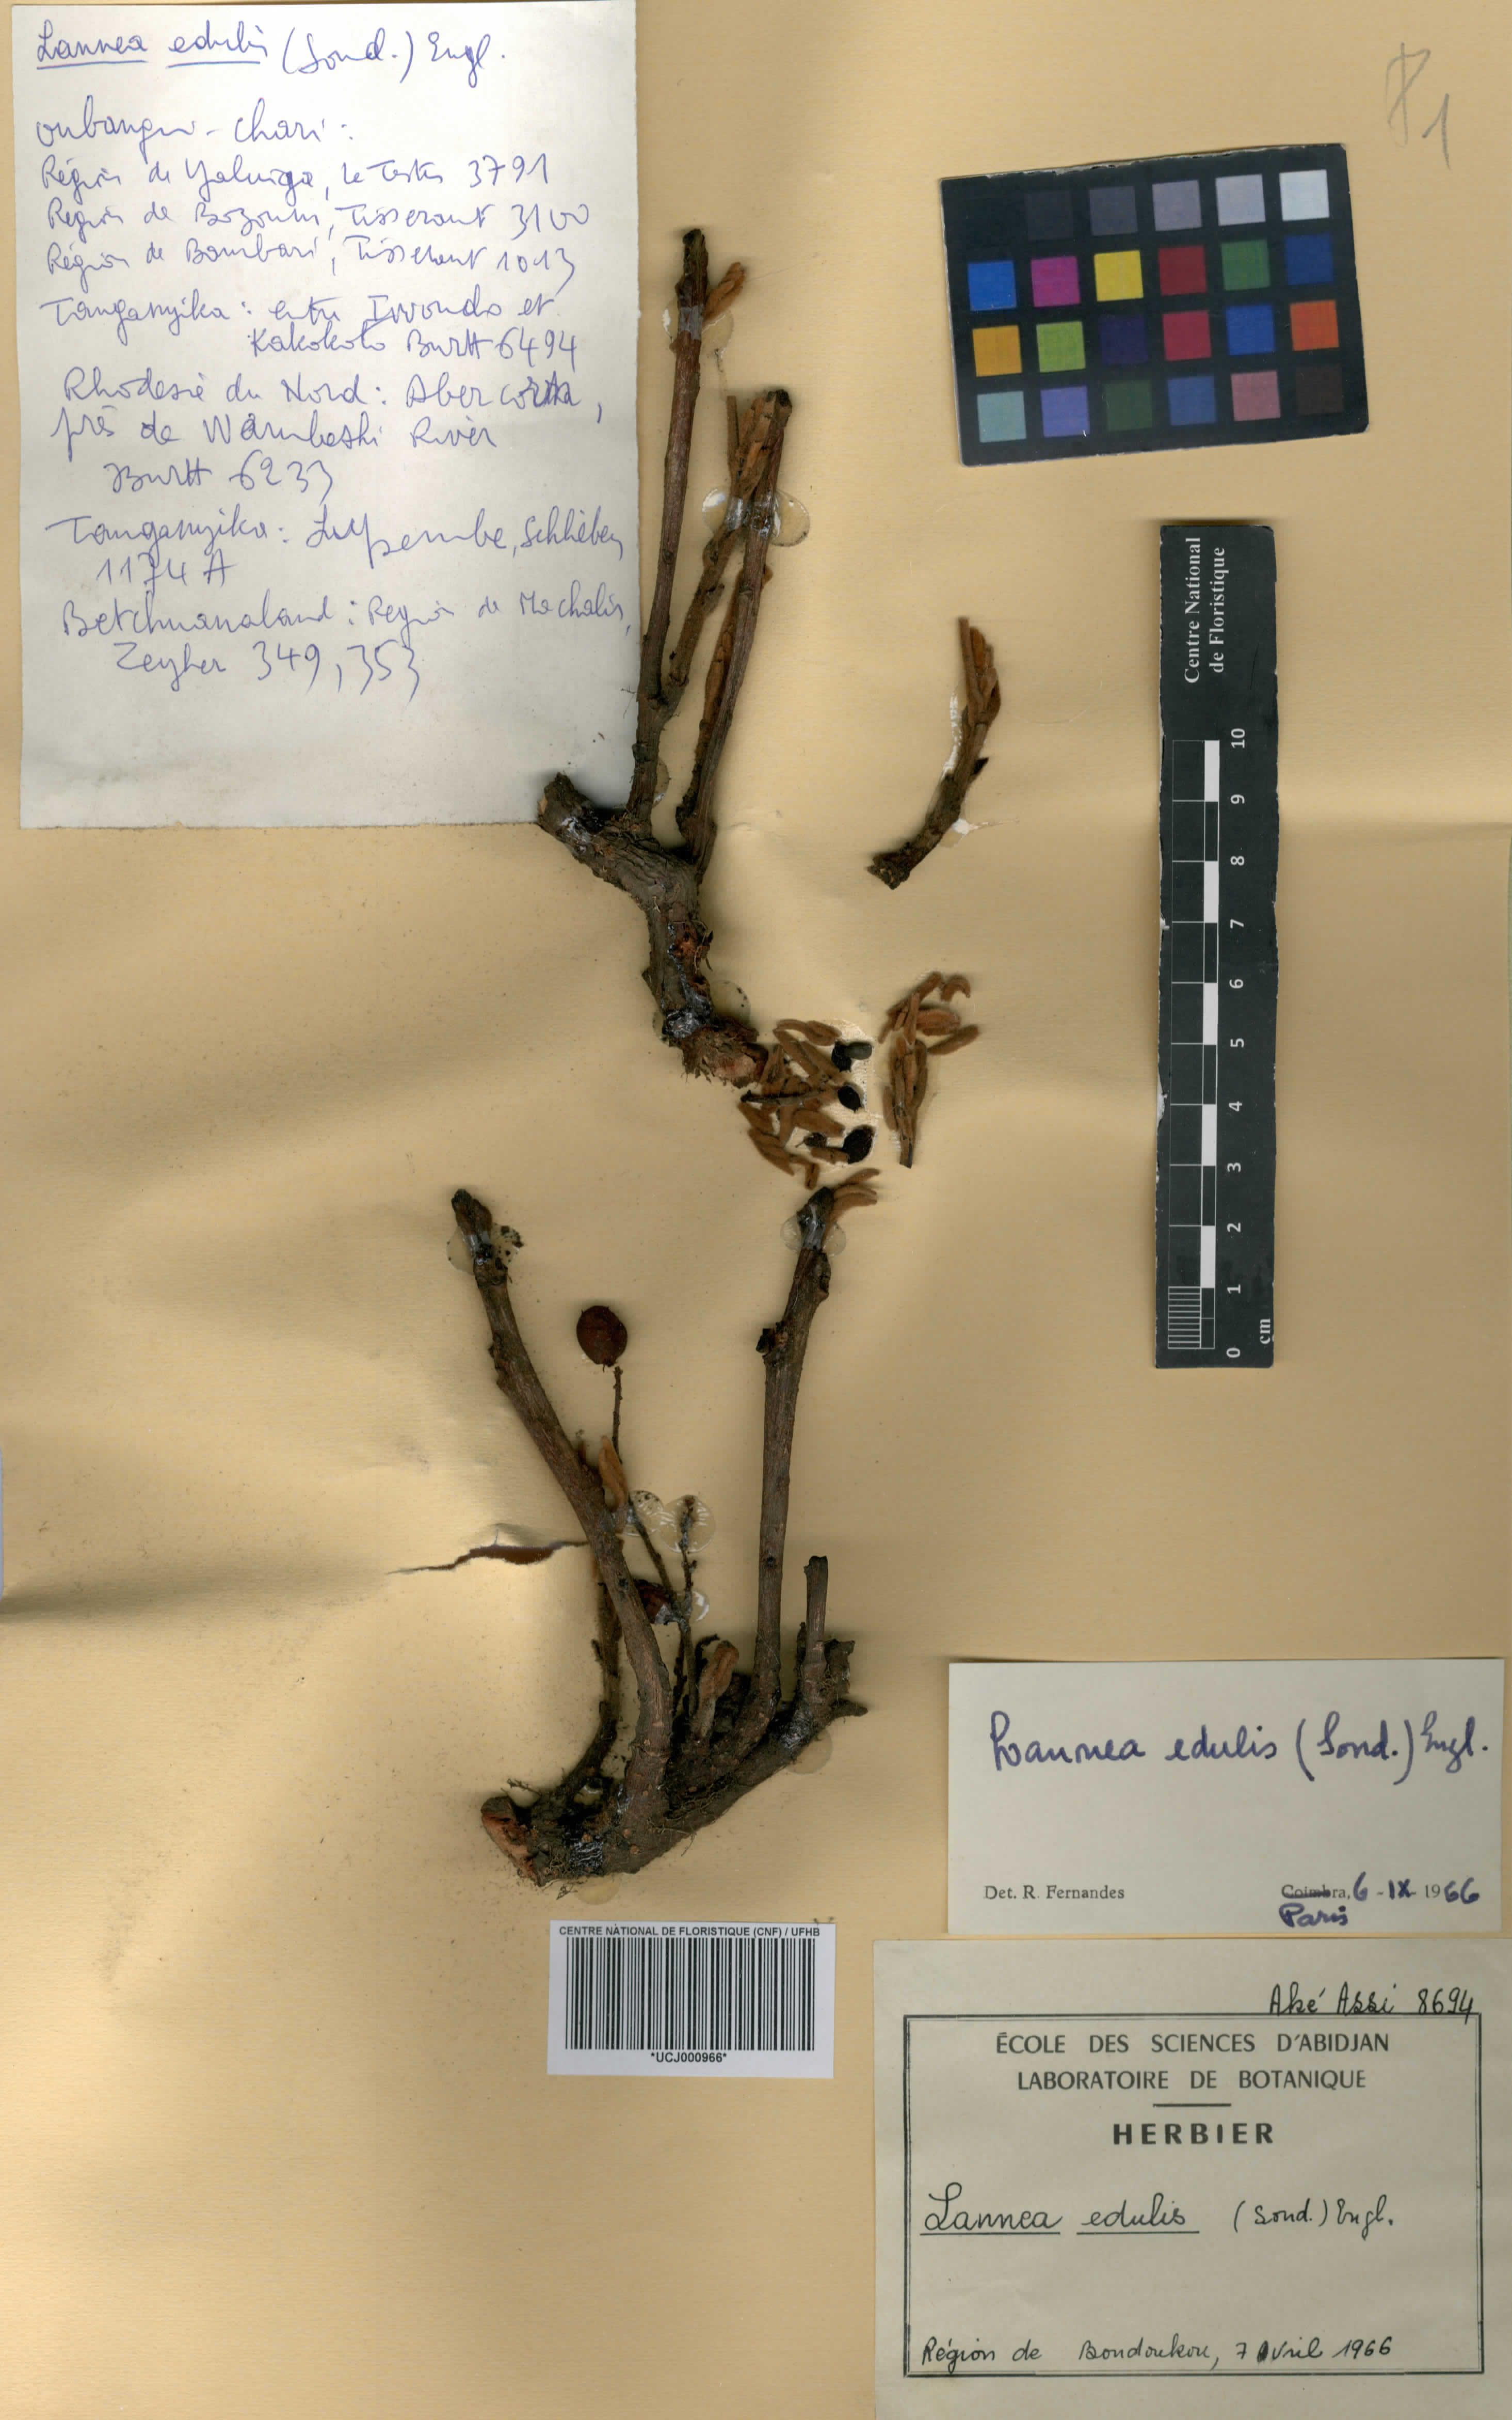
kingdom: Plantae
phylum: Tracheophyta
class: Magnoliopsida
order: Sapindales
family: Anacardiaceae
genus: Lannea
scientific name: Lannea edulis
